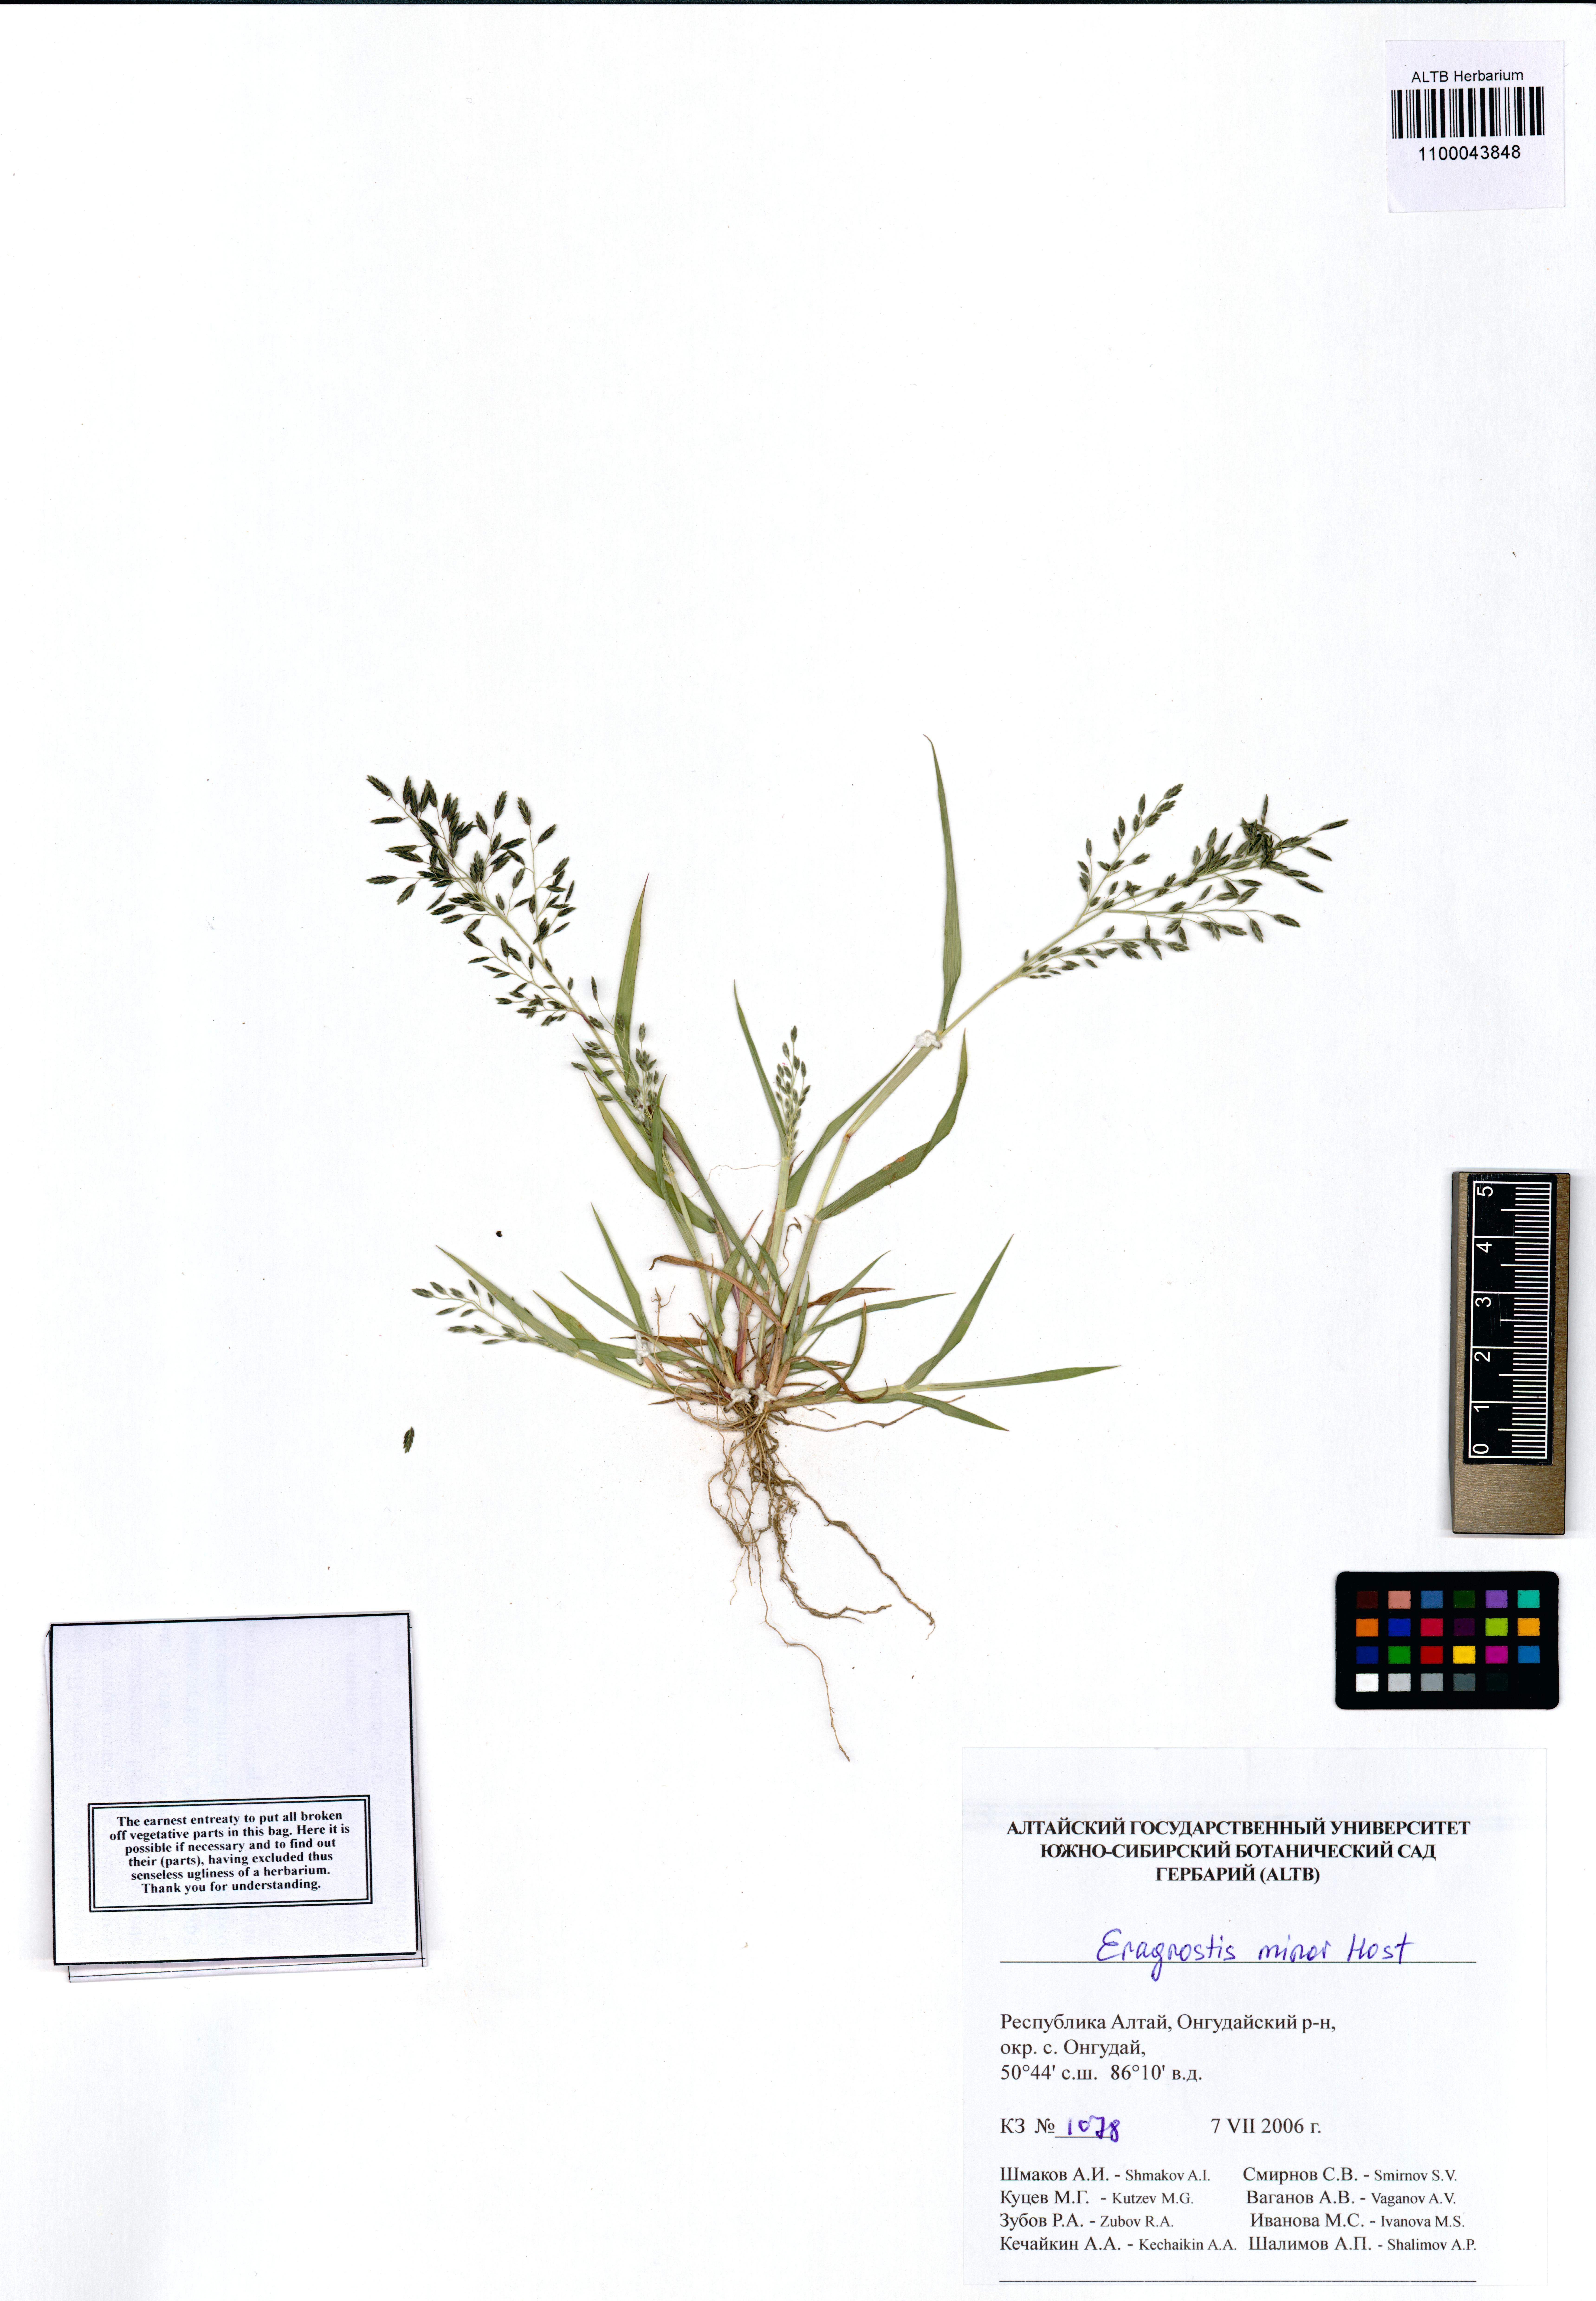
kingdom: Plantae
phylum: Tracheophyta
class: Liliopsida
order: Poales
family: Poaceae
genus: Eragrostis
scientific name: Eragrostis minor
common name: Small love-grass
